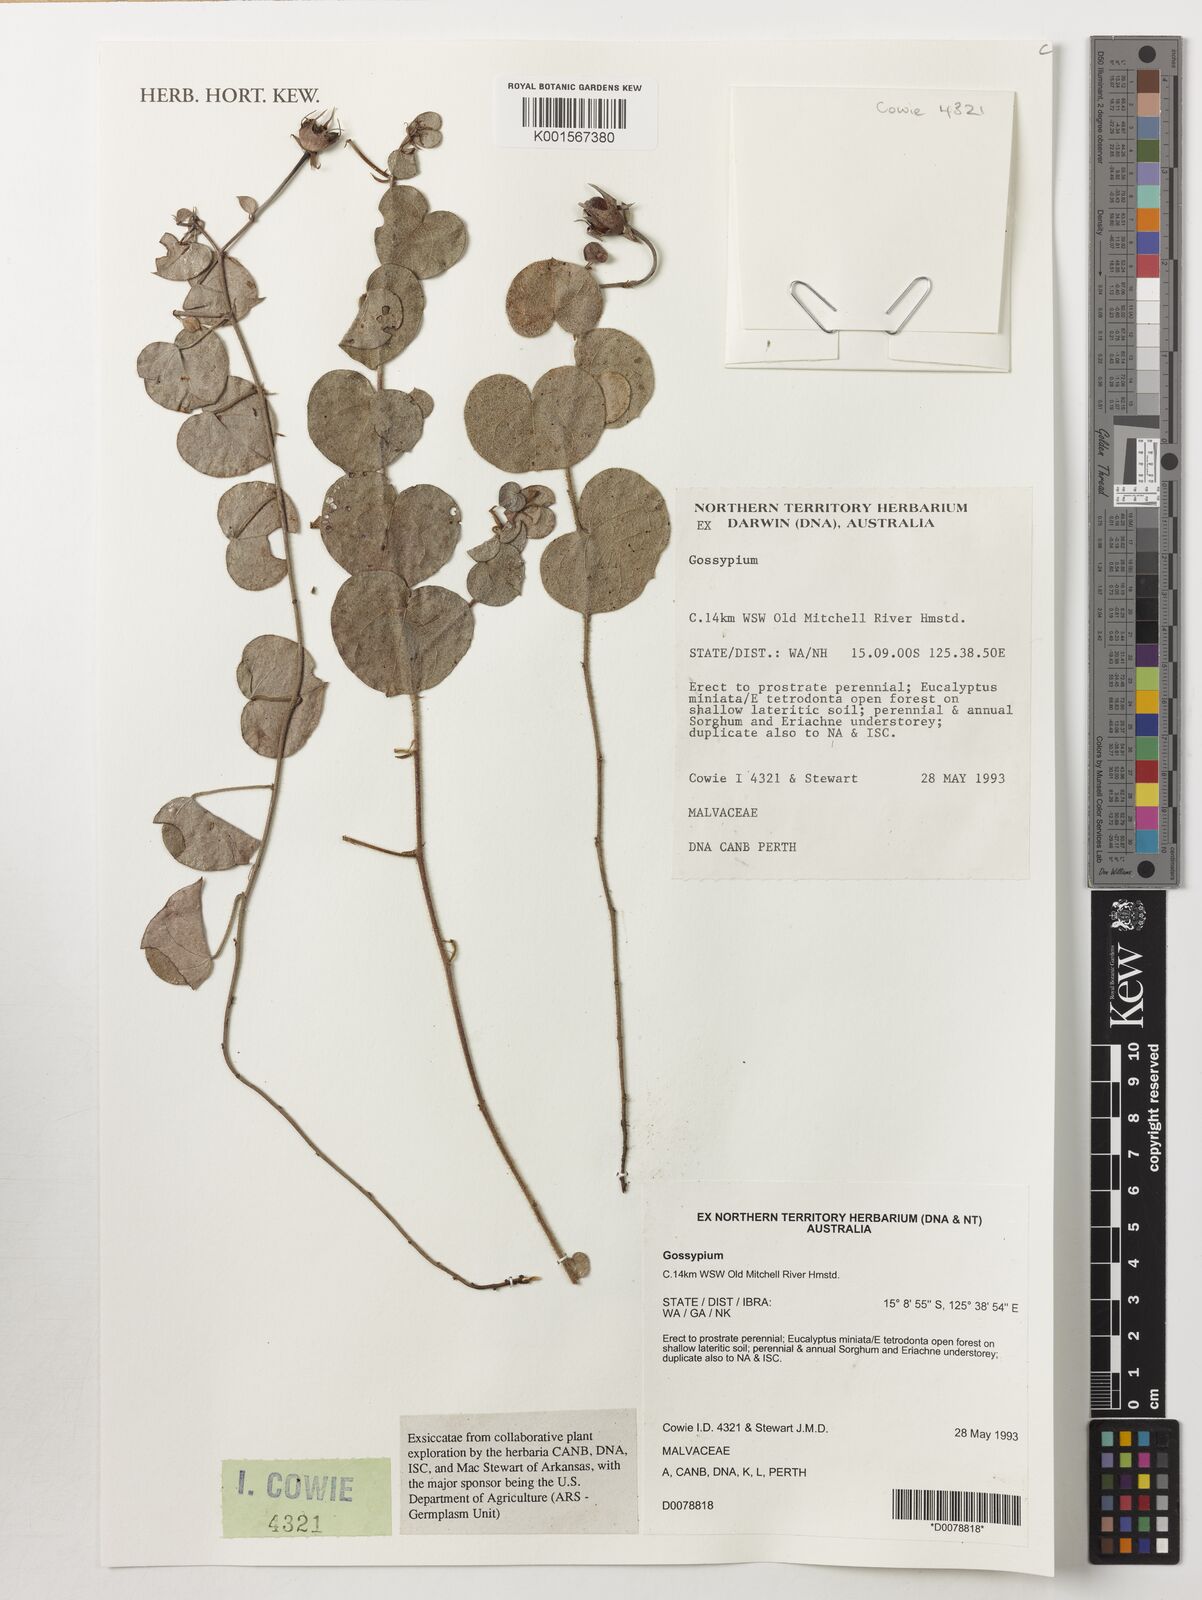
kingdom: Plantae
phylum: Tracheophyta
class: Magnoliopsida
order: Malvales
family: Malvaceae
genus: Gossypium
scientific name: Gossypium
